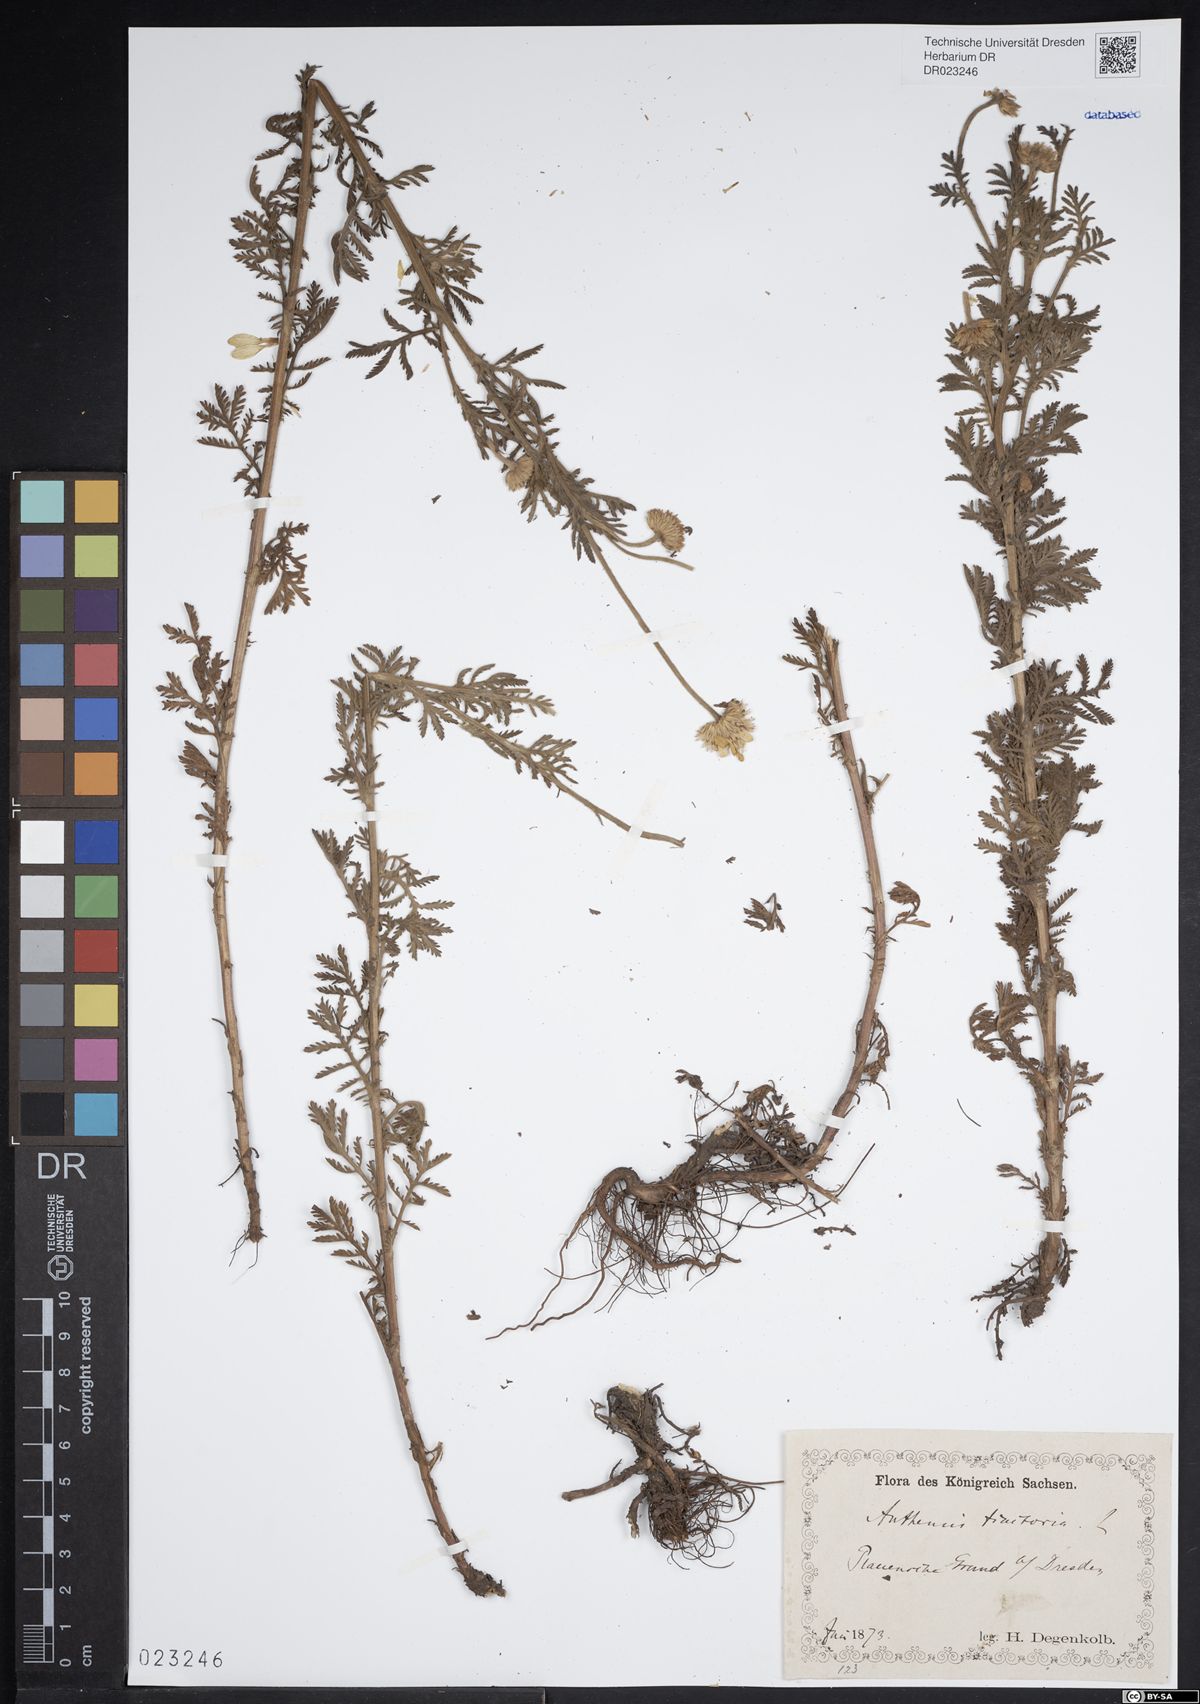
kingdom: Plantae
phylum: Tracheophyta
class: Magnoliopsida
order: Asterales
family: Asteraceae
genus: Cota
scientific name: Cota tinctoria
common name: Golden chamomile
